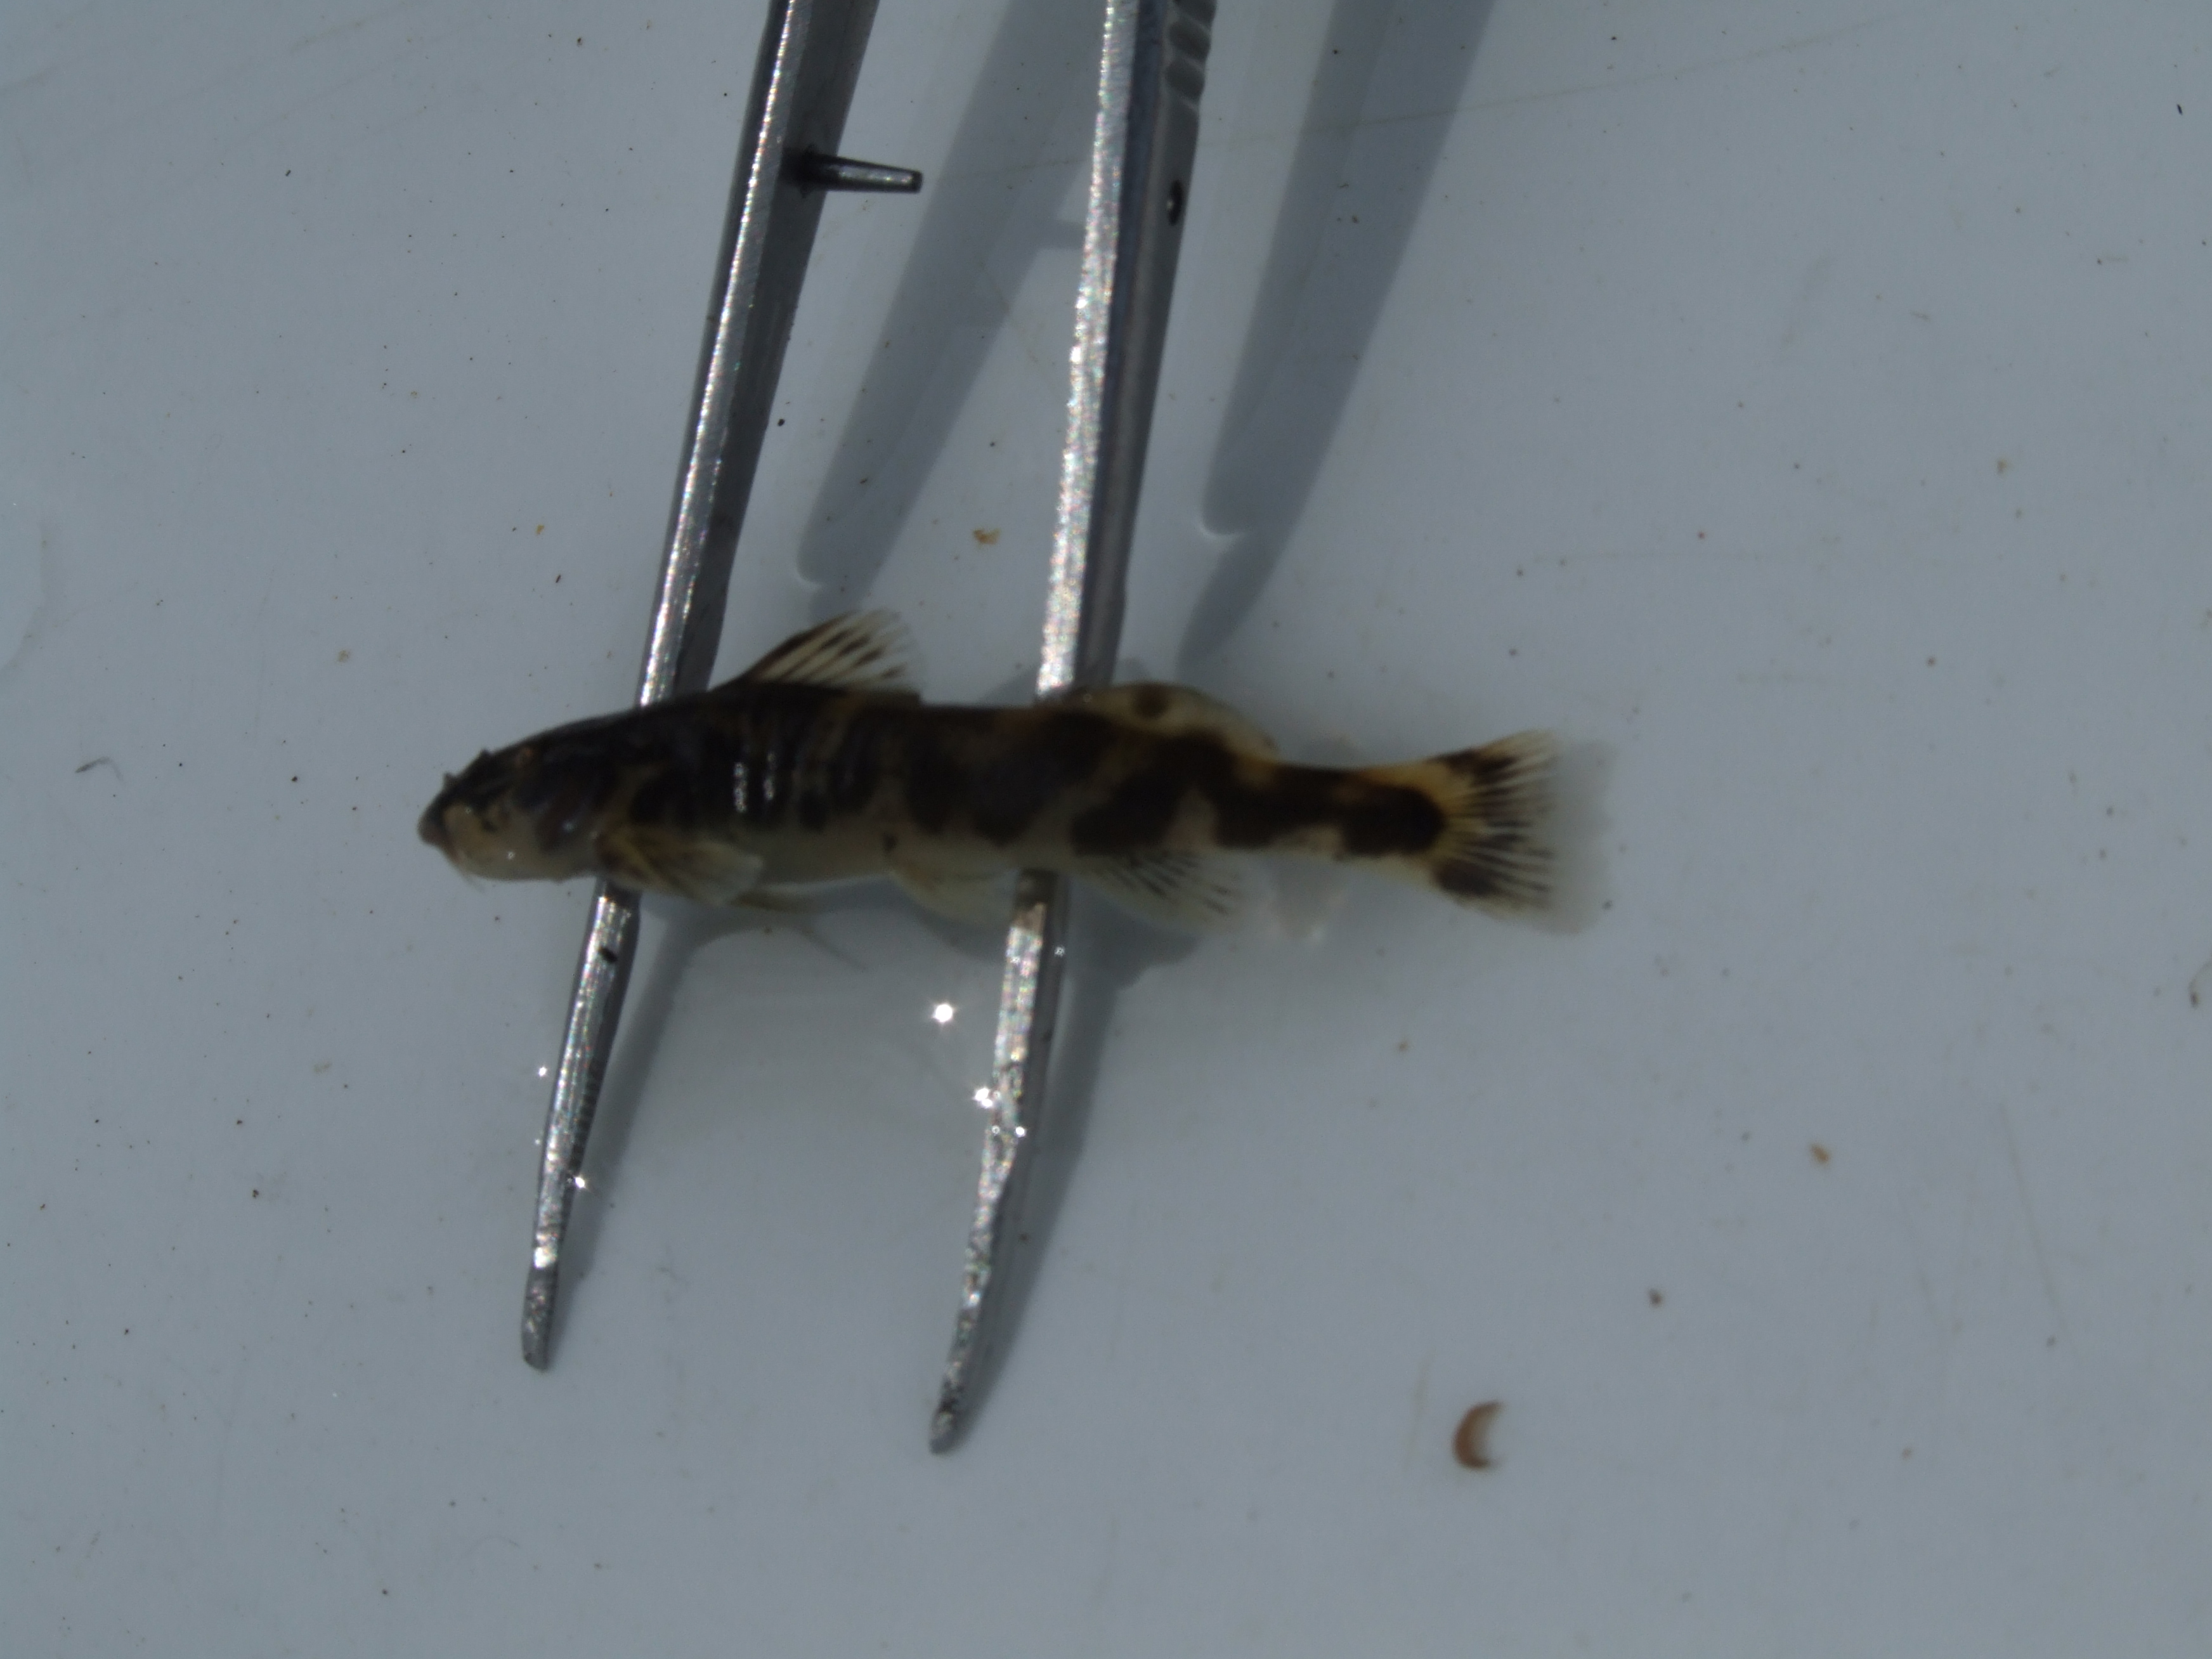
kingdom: Animalia
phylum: Chordata
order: Siluriformes
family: Amphiliidae
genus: Zaireichthys
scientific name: Zaireichthys
